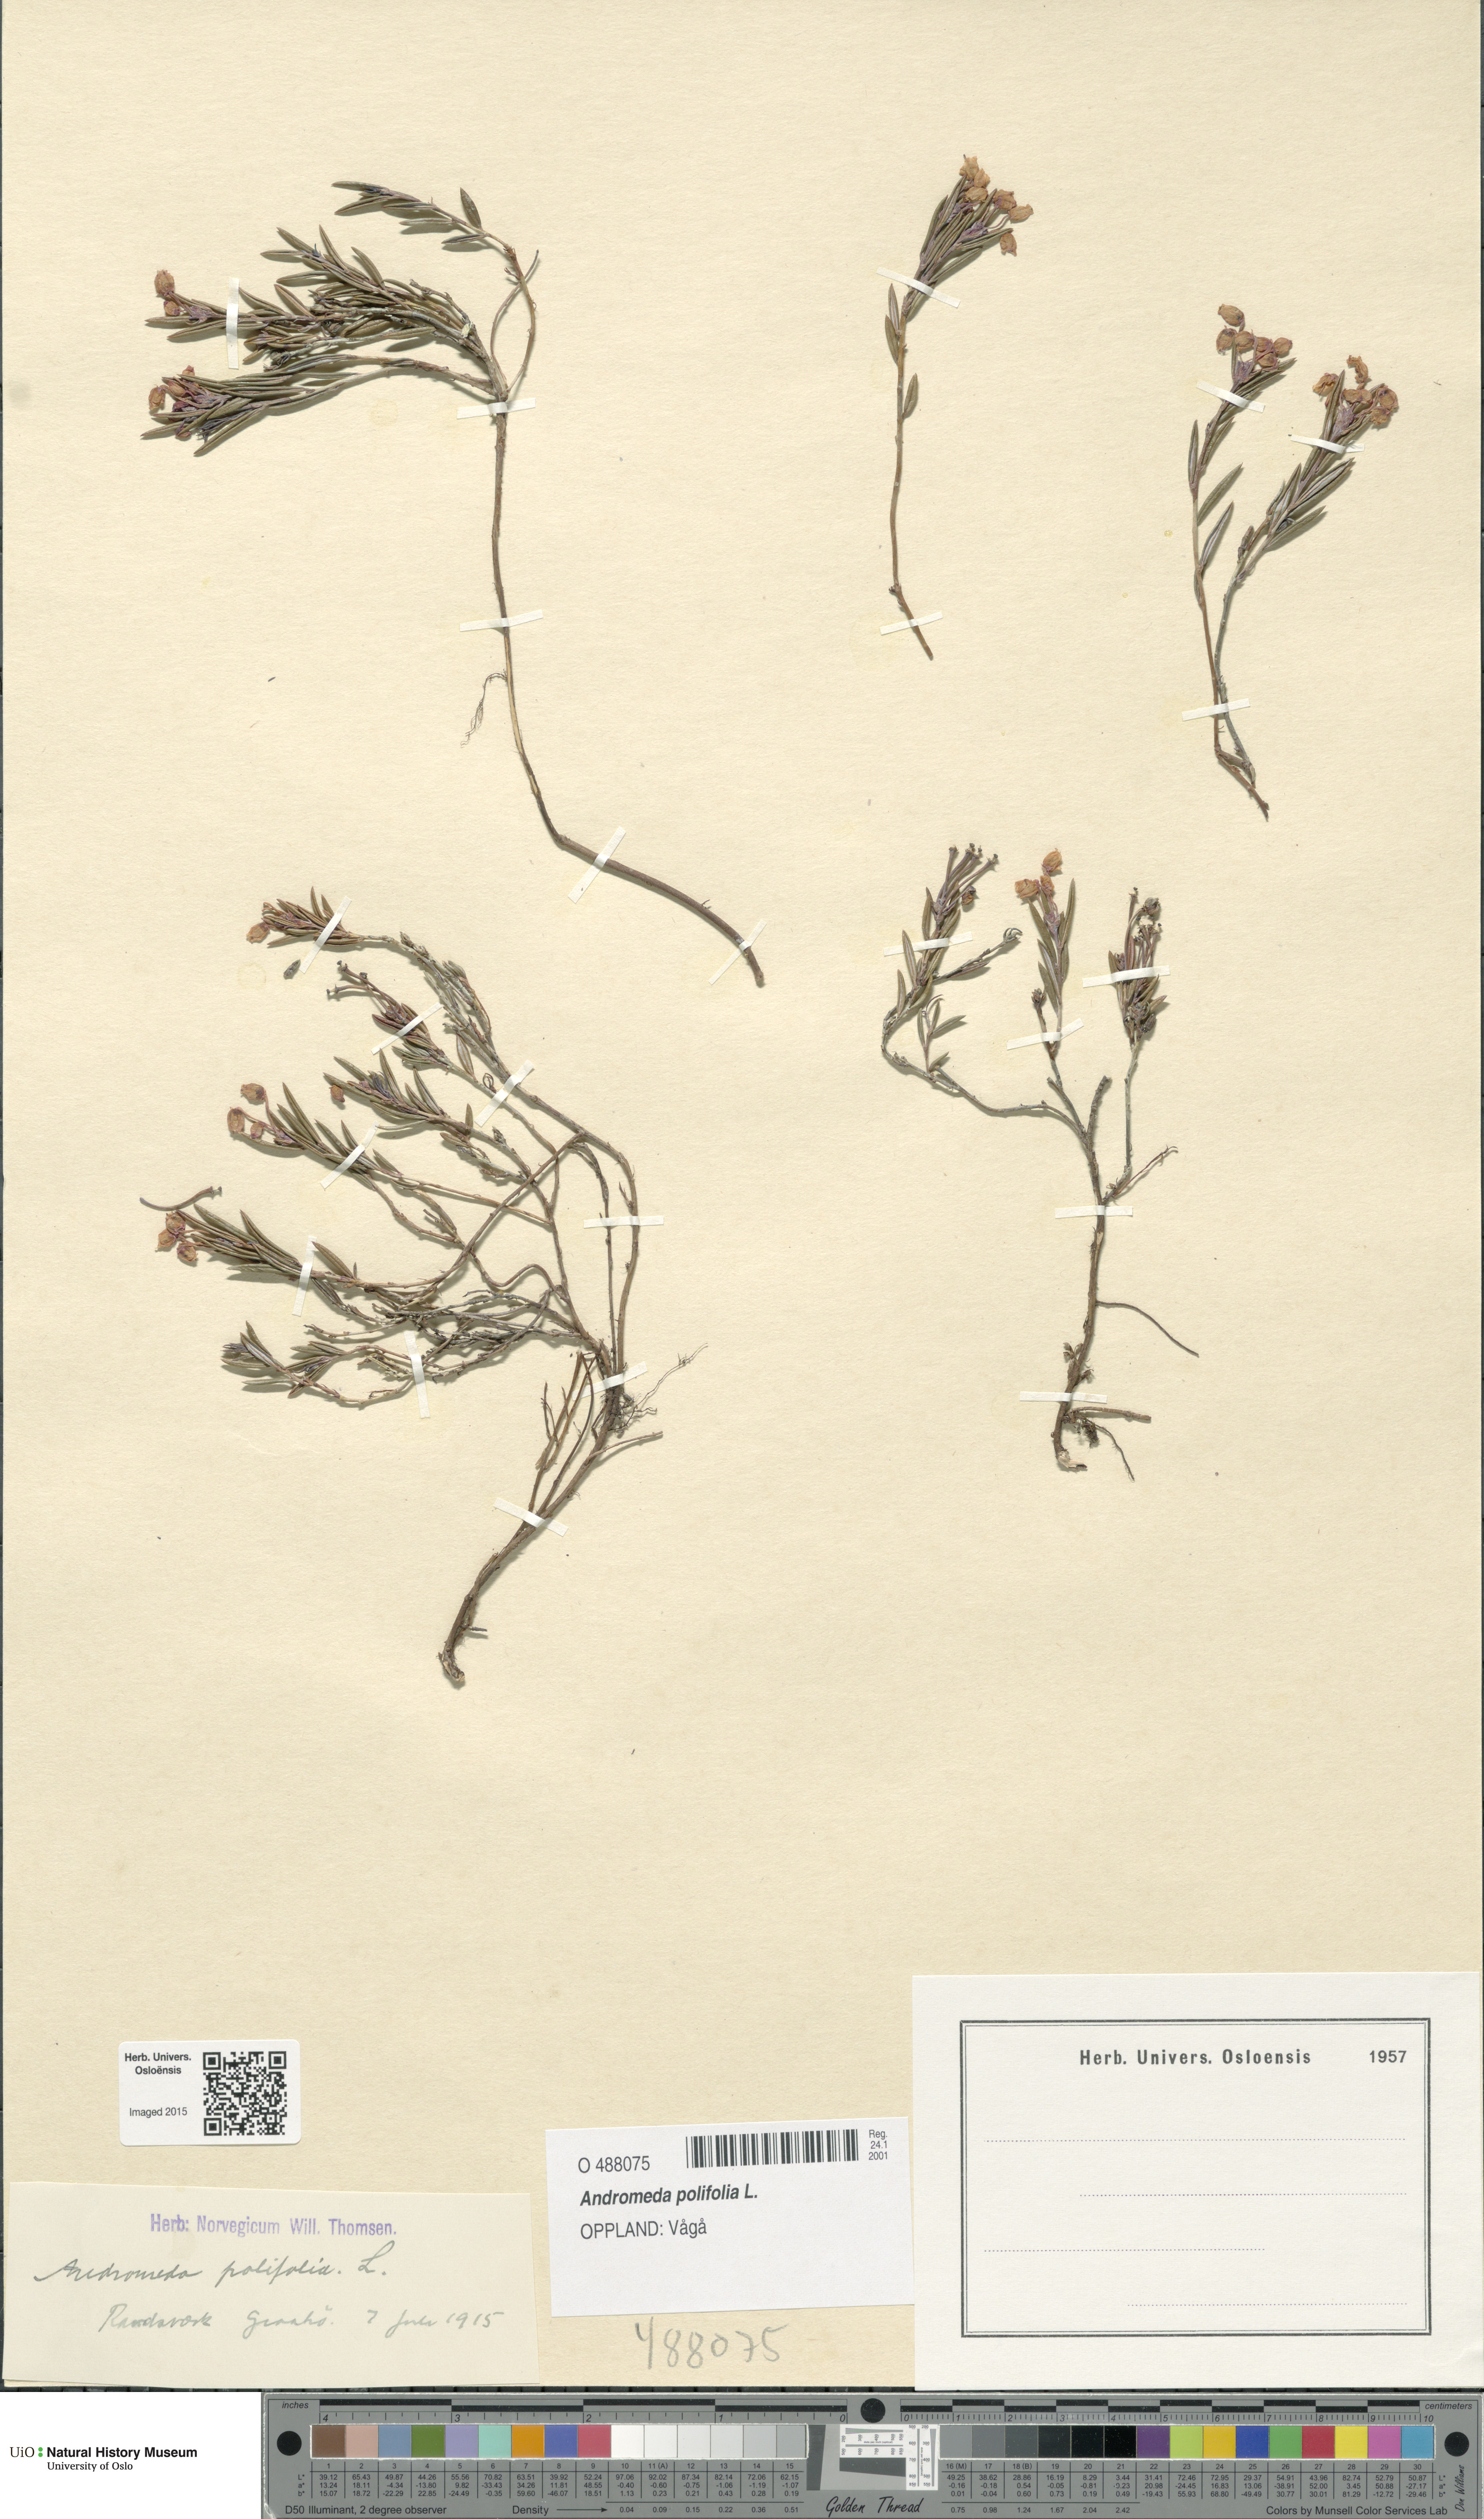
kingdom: Plantae
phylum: Tracheophyta
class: Magnoliopsida
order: Ericales
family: Ericaceae
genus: Andromeda
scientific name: Andromeda polifolia
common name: Bog-rosemary
